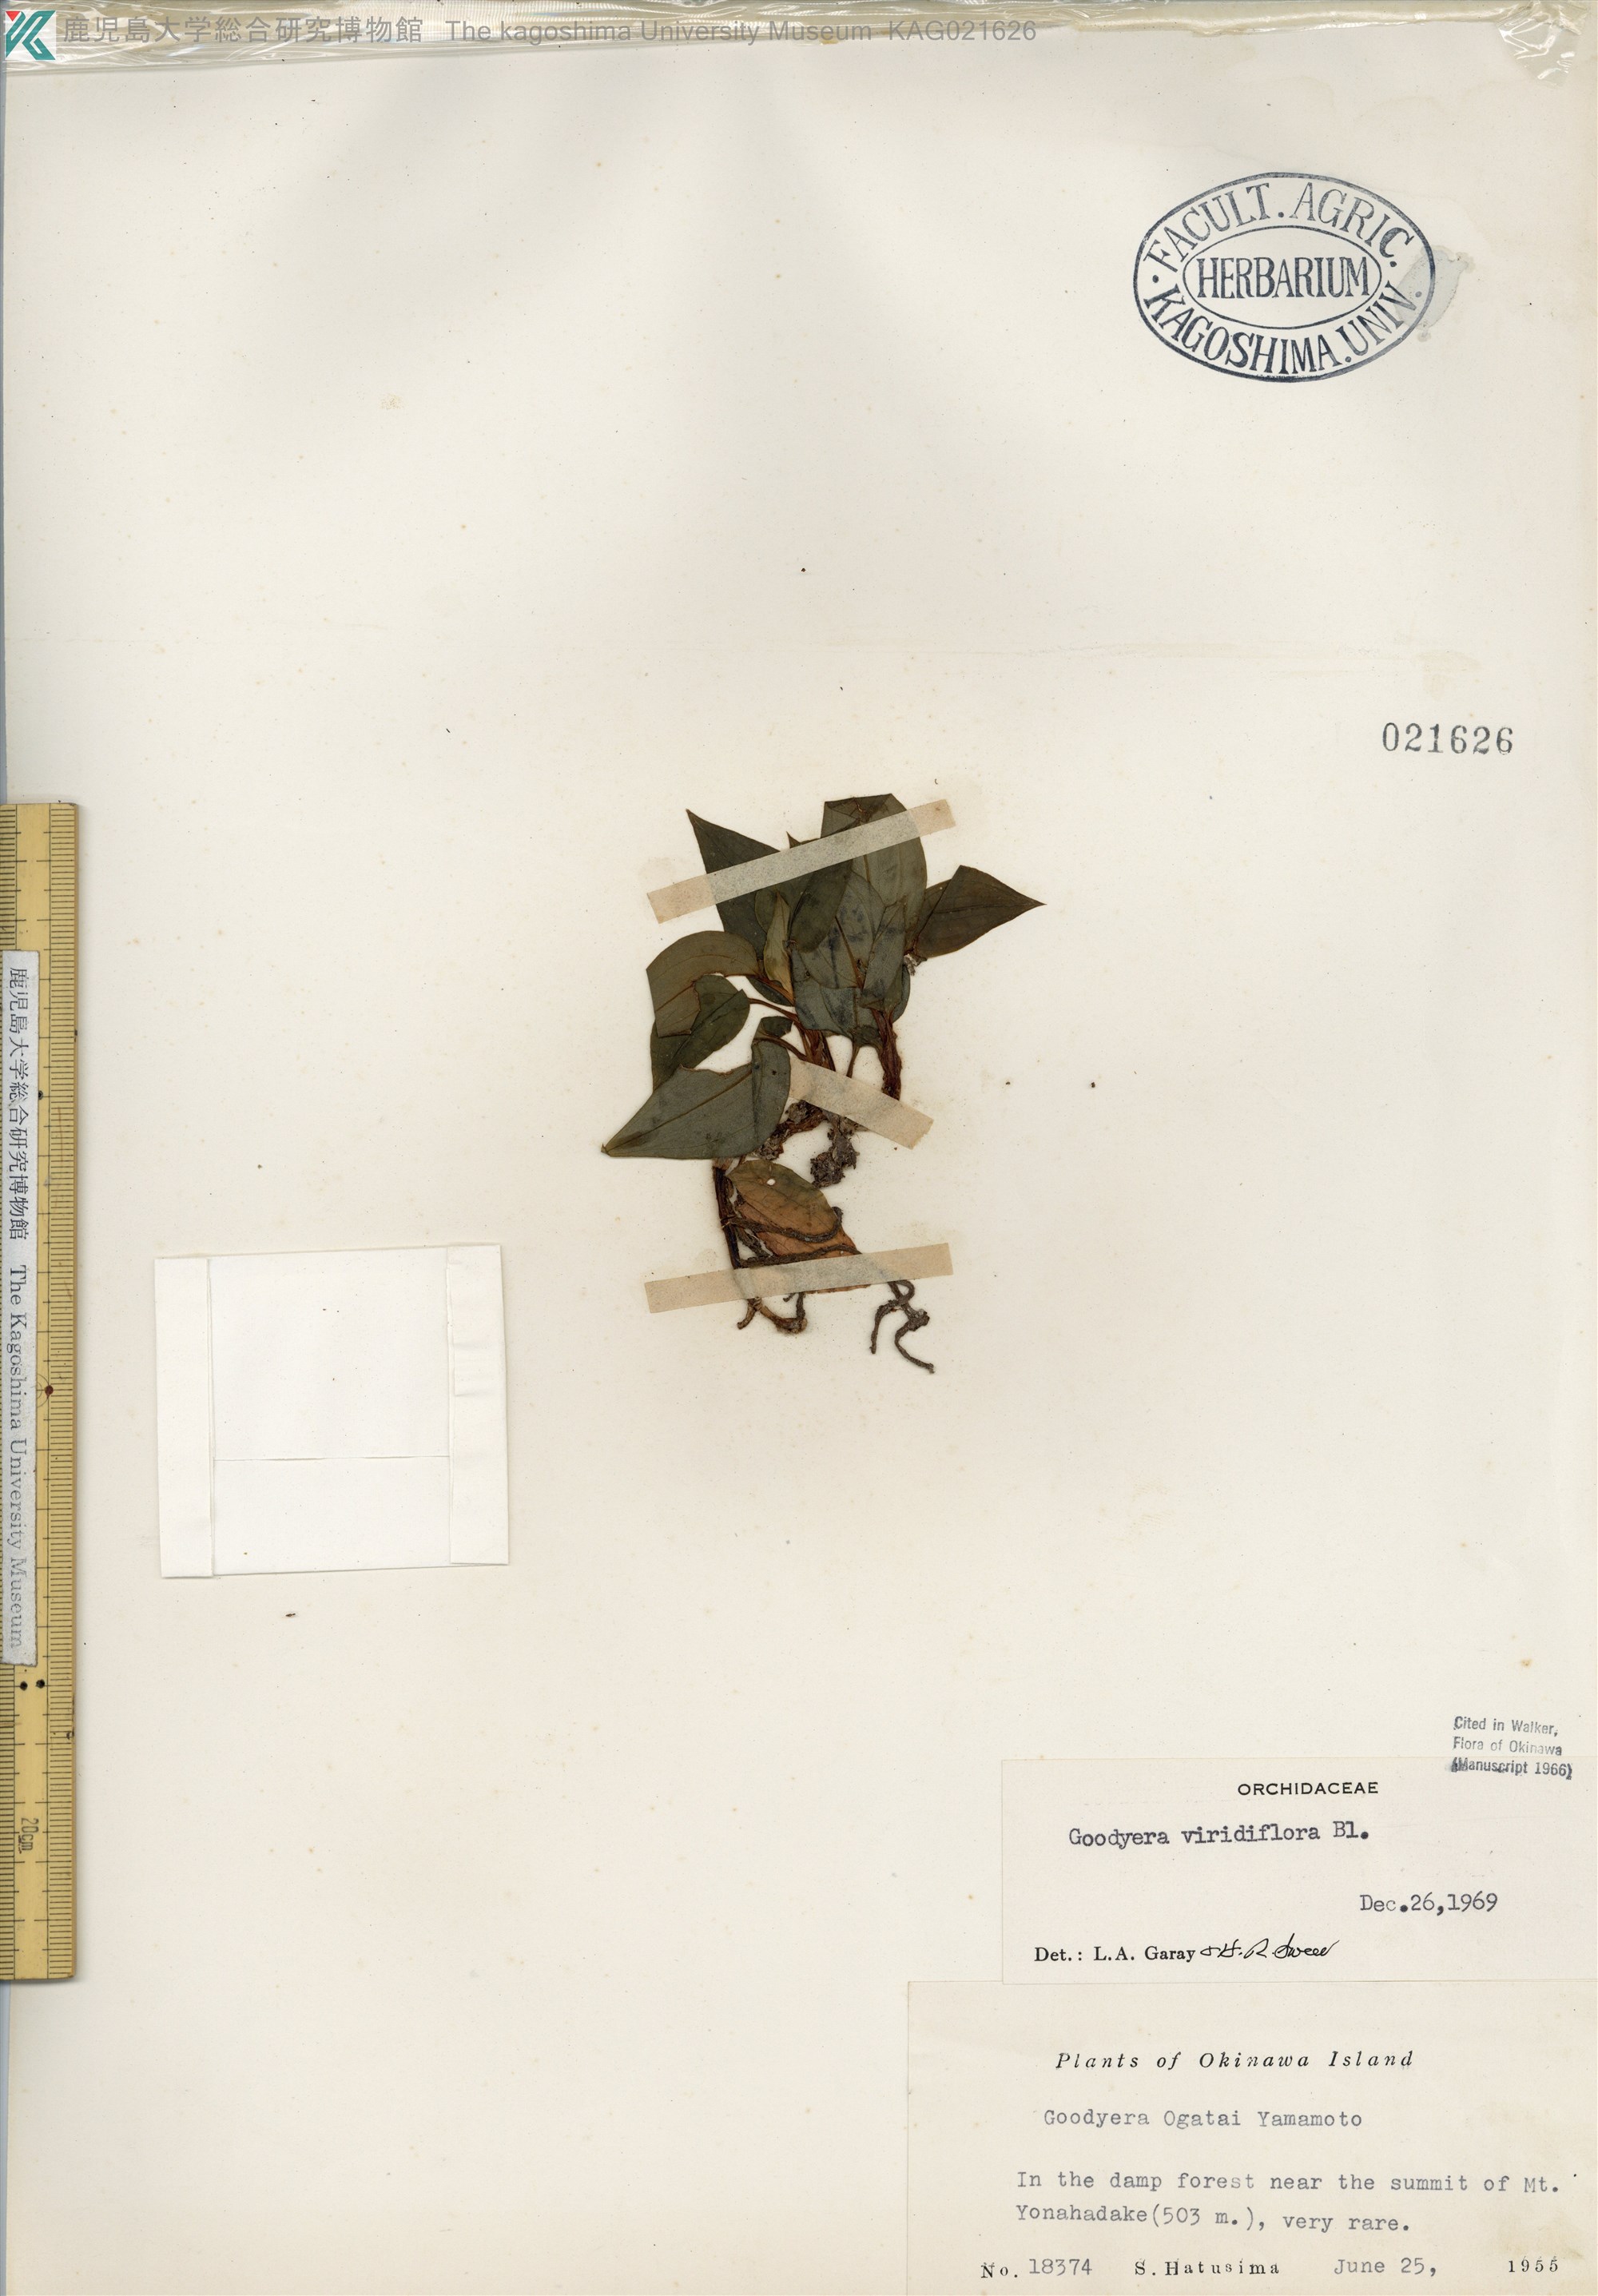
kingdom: Plantae
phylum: Tracheophyta
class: Liliopsida
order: Asparagales
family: Orchidaceae
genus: Goodyera
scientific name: Goodyera viridiflora
